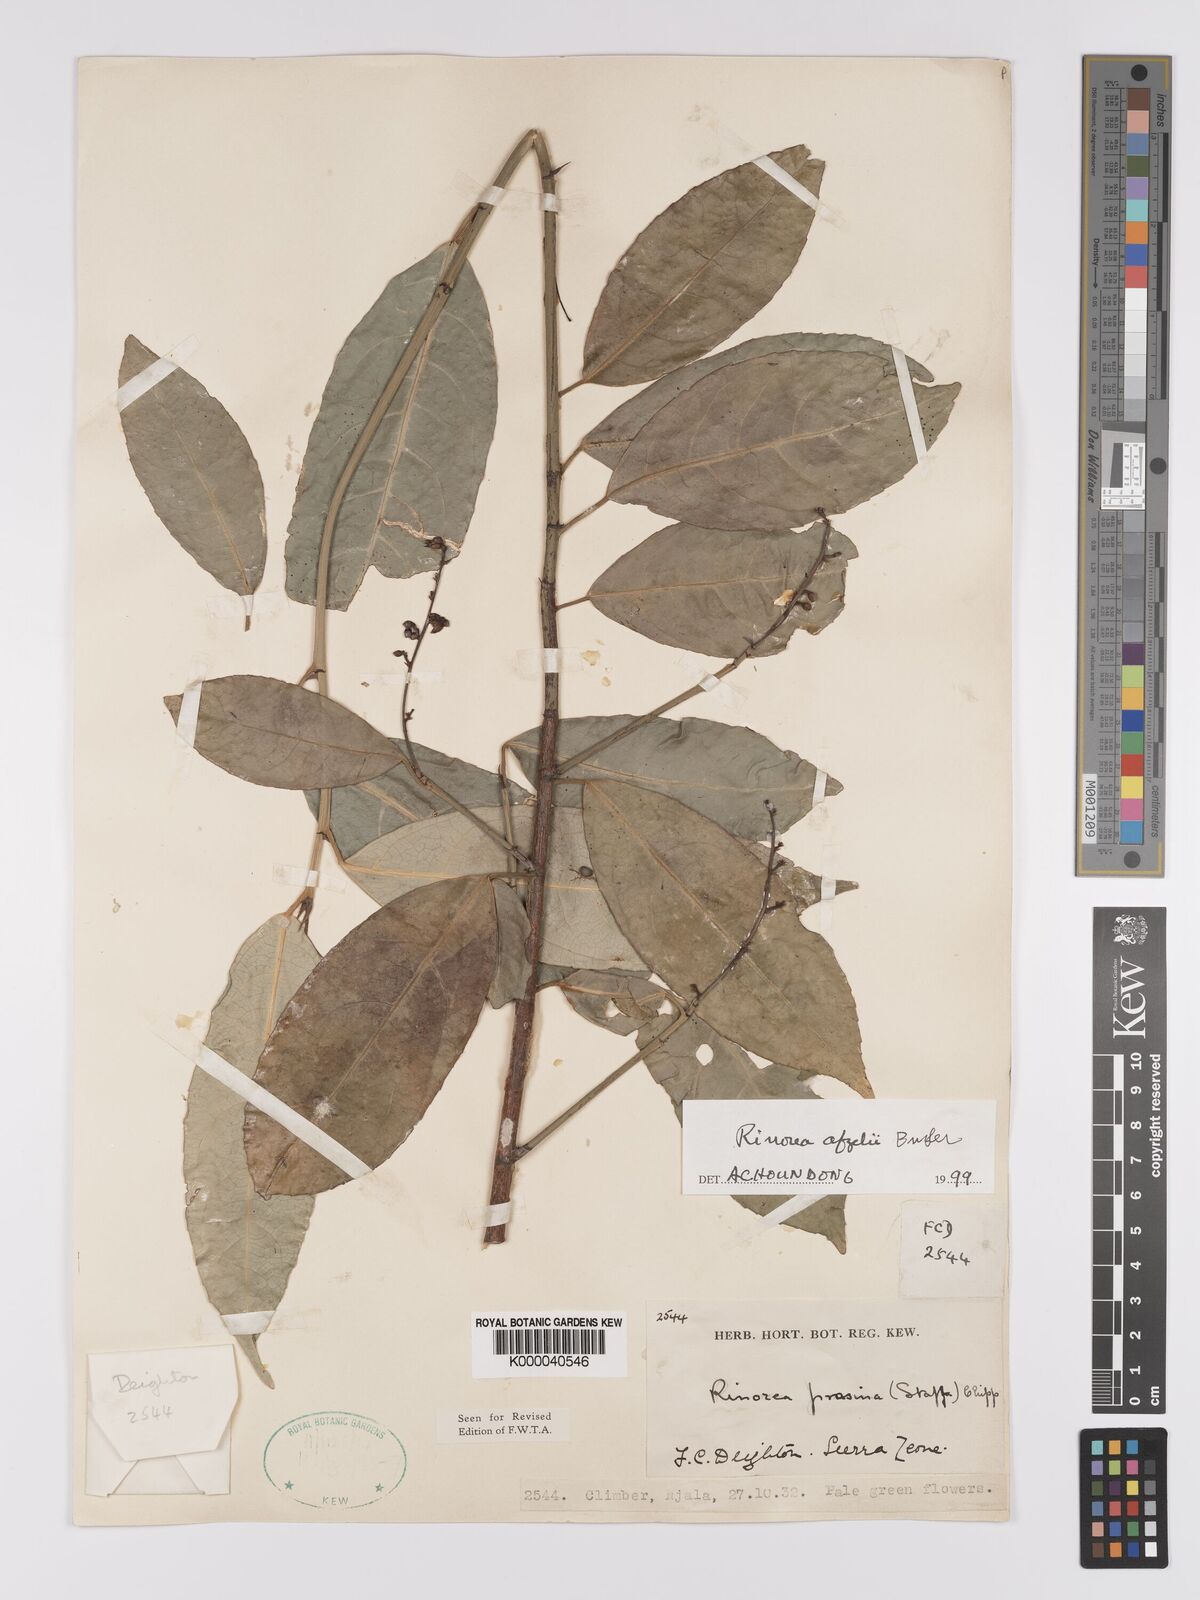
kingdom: Plantae
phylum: Tracheophyta
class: Magnoliopsida
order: Malpighiales
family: Violaceae
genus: Rinorea
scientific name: Rinorea afzelii
